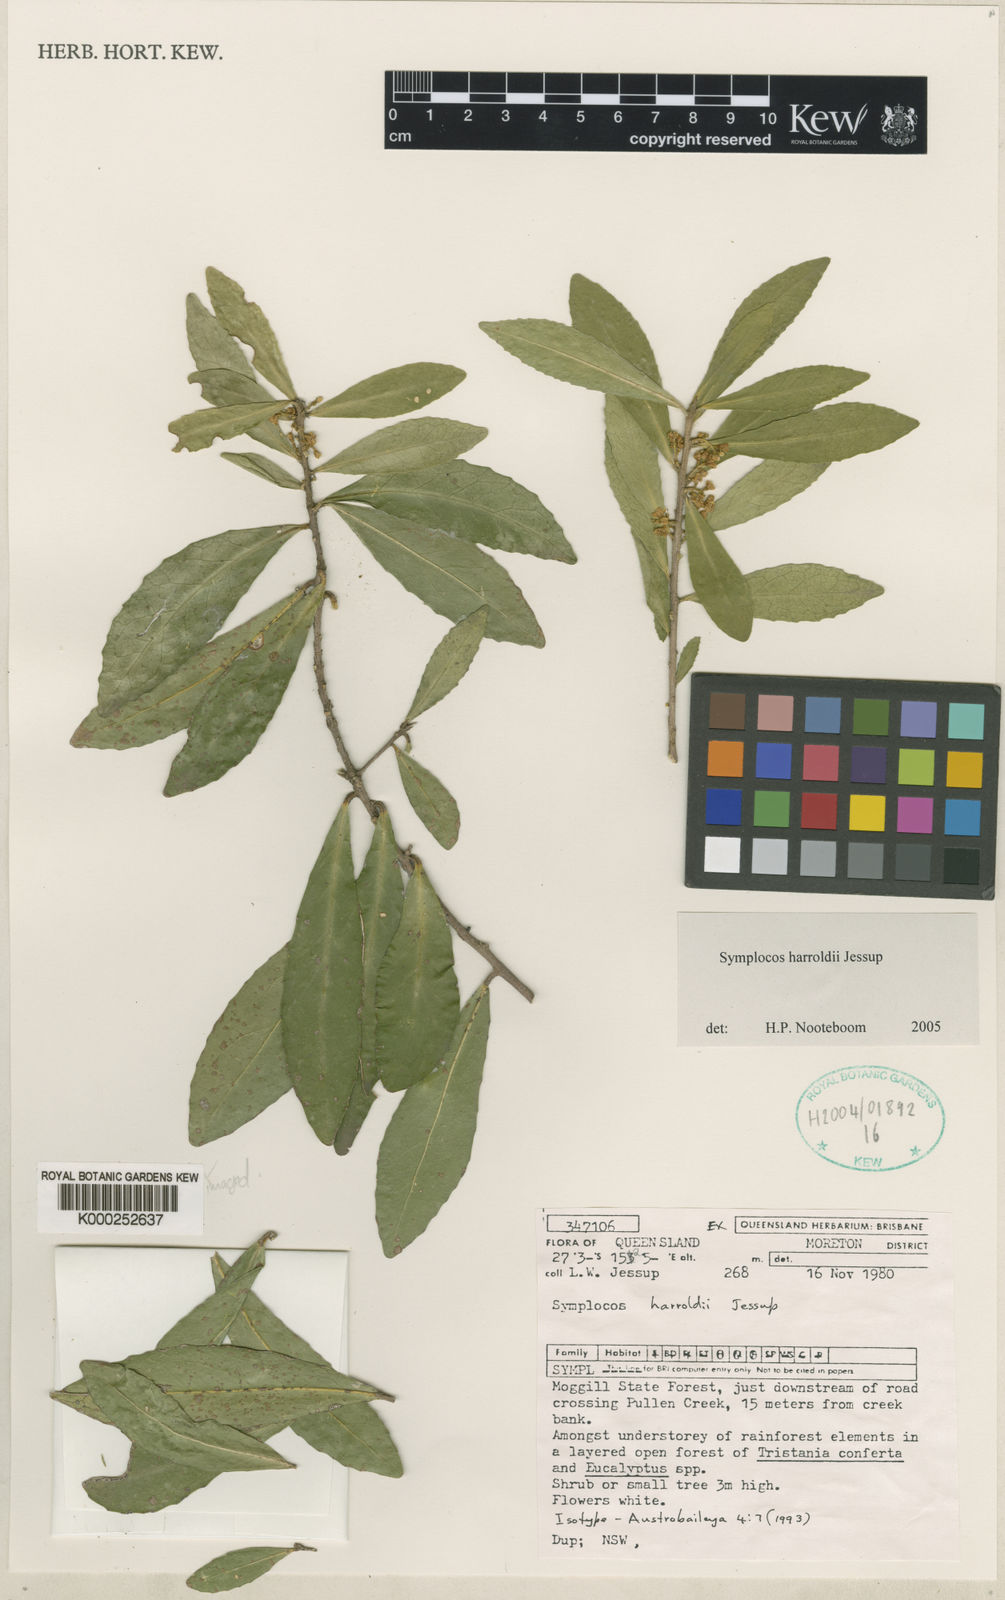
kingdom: Plantae
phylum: Tracheophyta
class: Magnoliopsida
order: Ericales
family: Symplocaceae
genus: Symplocos
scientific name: Symplocos harroldii
